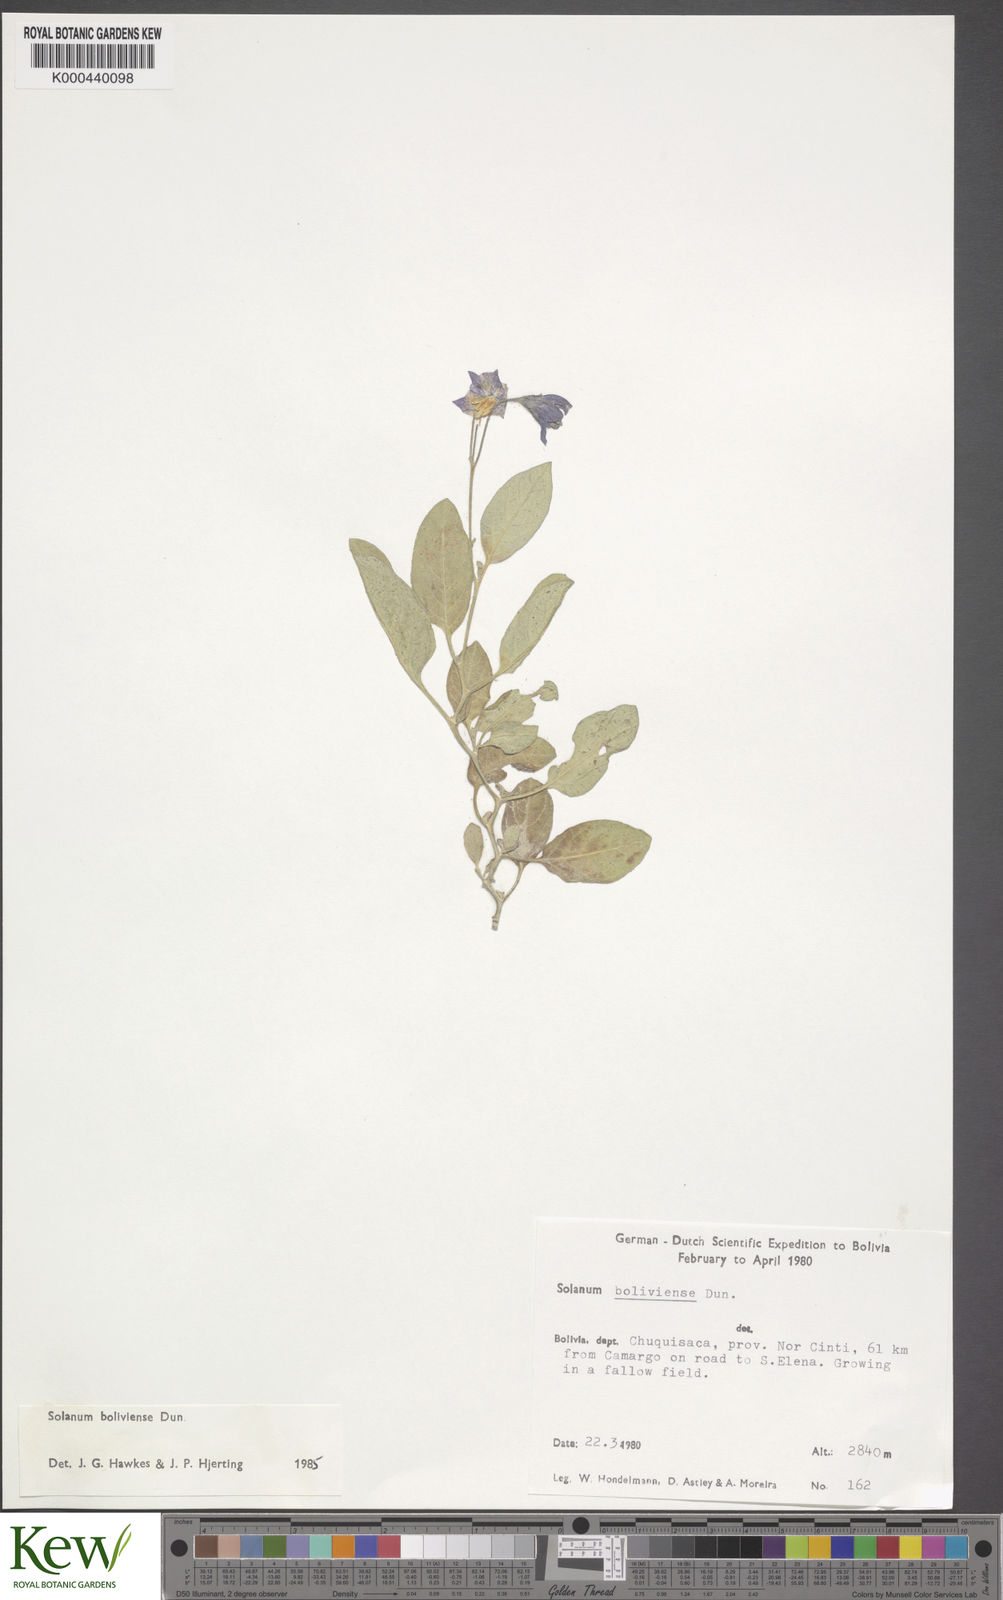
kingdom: Plantae
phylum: Tracheophyta
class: Magnoliopsida
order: Solanales
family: Solanaceae
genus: Solanum
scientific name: Solanum boliviense
